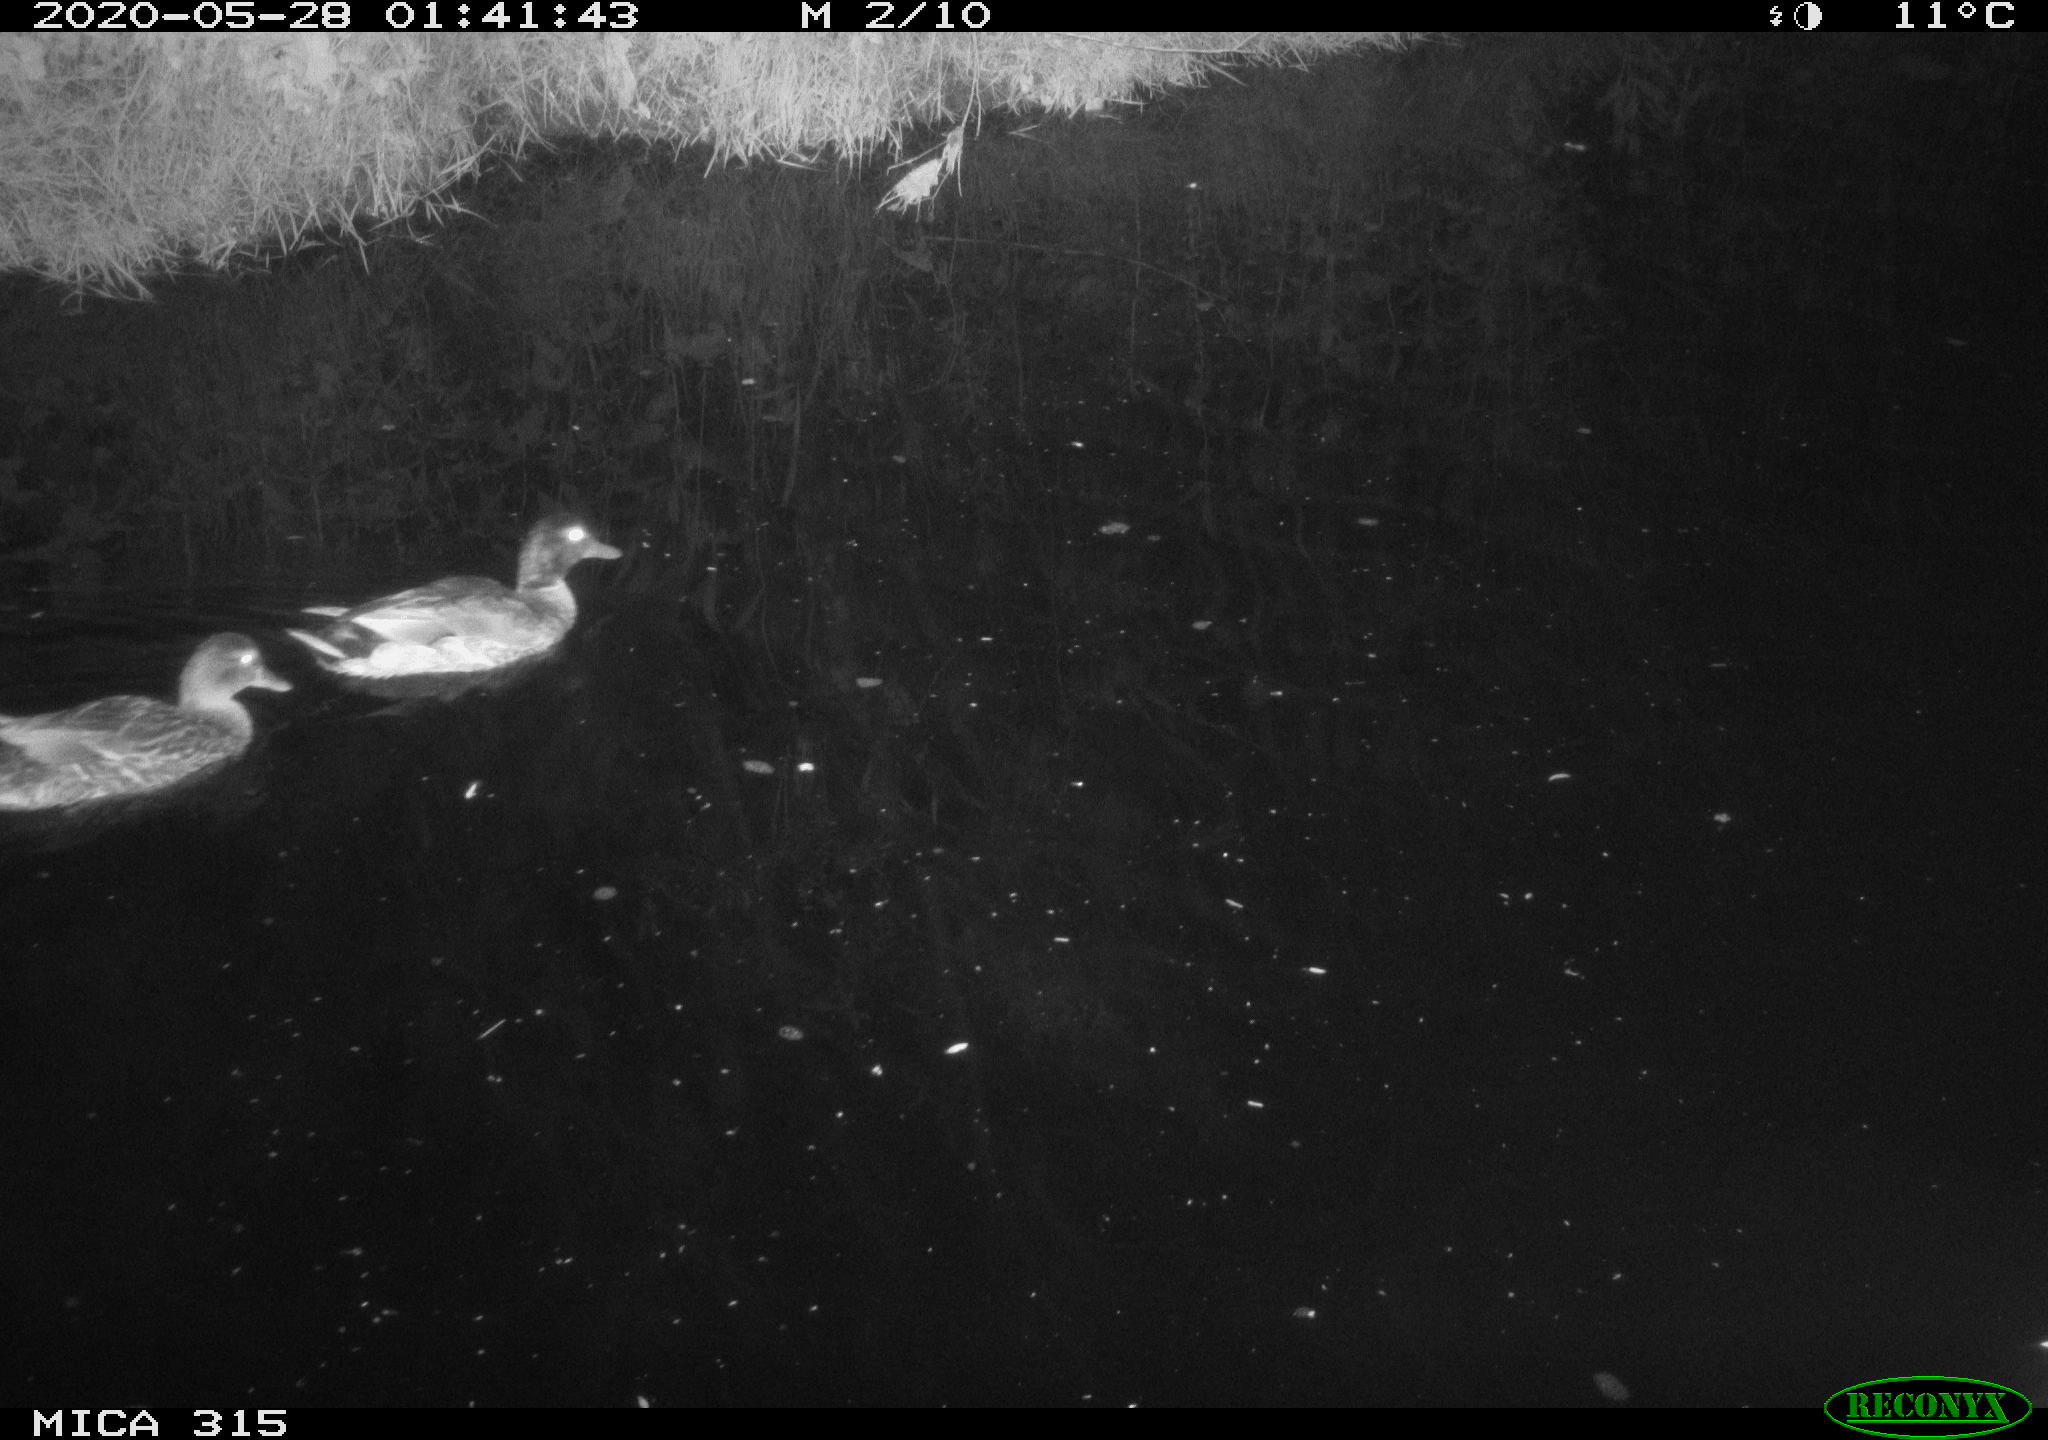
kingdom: Animalia
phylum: Chordata
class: Aves
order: Anseriformes
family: Anatidae
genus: Anas
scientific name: Anas platyrhynchos
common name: Mallard
